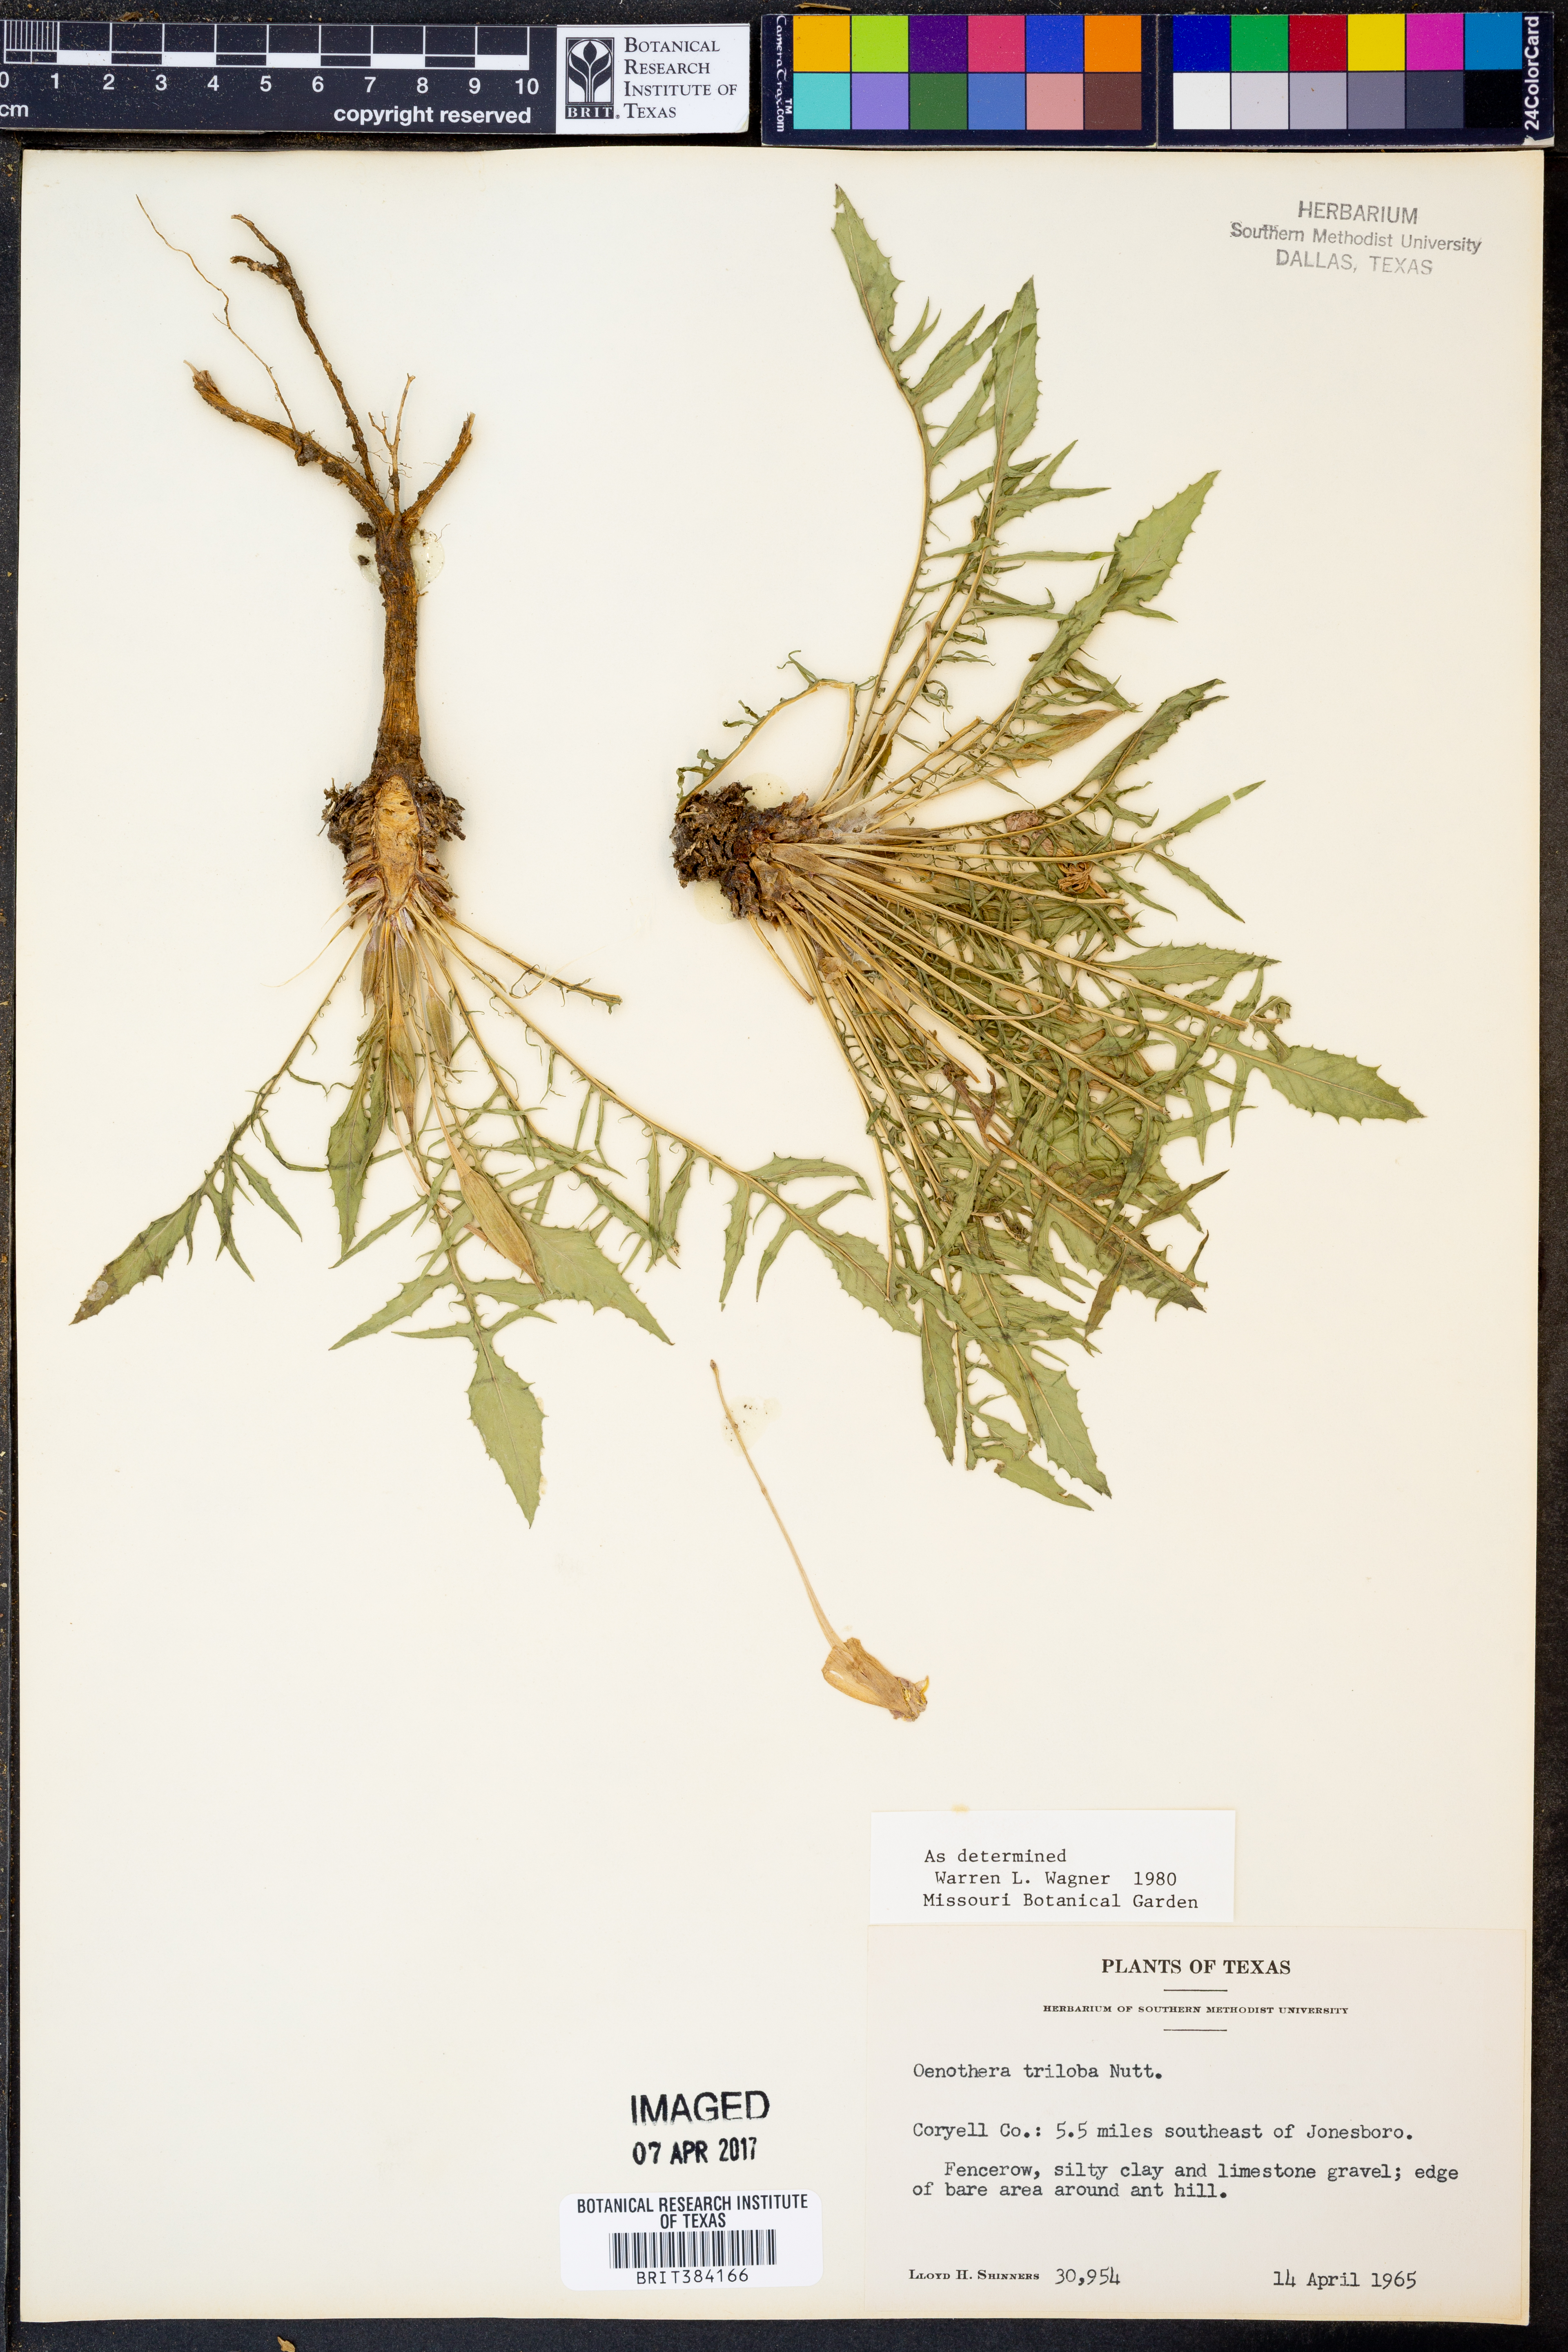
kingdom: Plantae
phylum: Tracheophyta
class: Magnoliopsida
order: Myrtales
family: Onagraceae
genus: Oenothera
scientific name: Oenothera triloba
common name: Sessile evening-primrose
